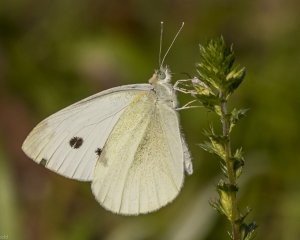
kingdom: Animalia
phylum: Arthropoda
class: Insecta
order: Lepidoptera
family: Pieridae
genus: Pieris
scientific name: Pieris rapae
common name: Cabbage White
